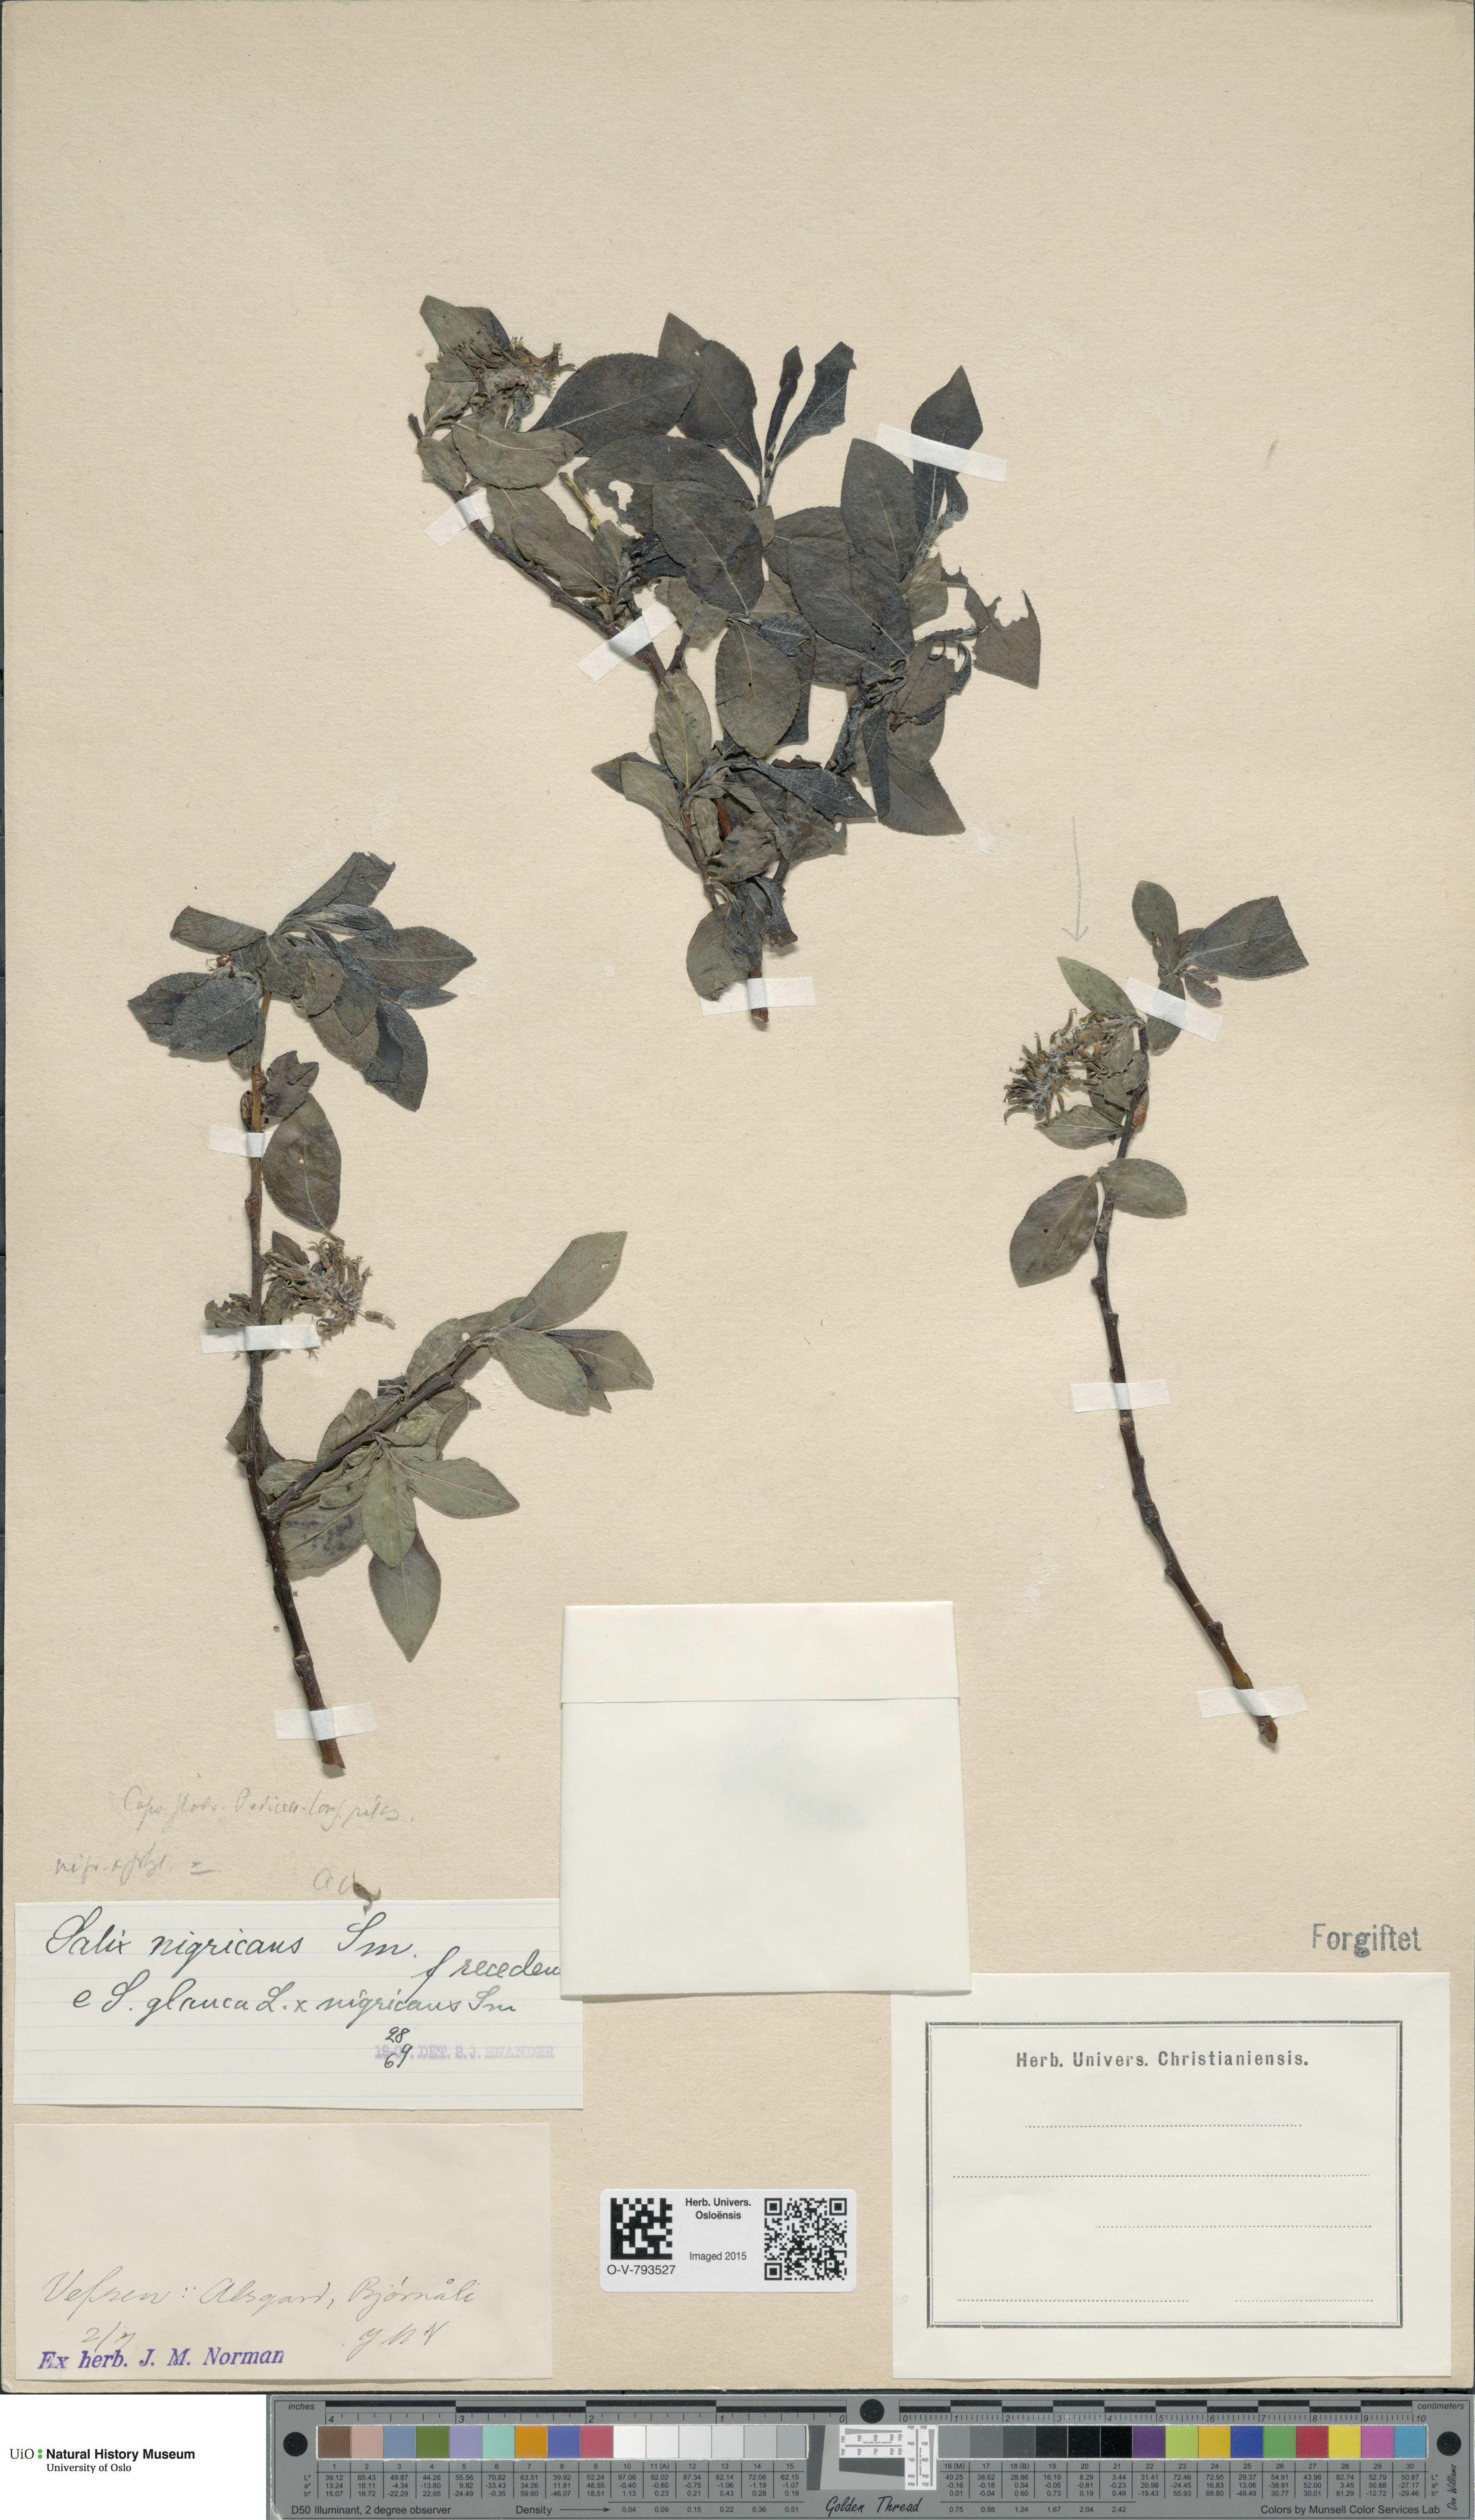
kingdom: Plantae
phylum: Tracheophyta
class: Magnoliopsida
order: Malpighiales
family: Salicaceae
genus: Salix
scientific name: Salix
